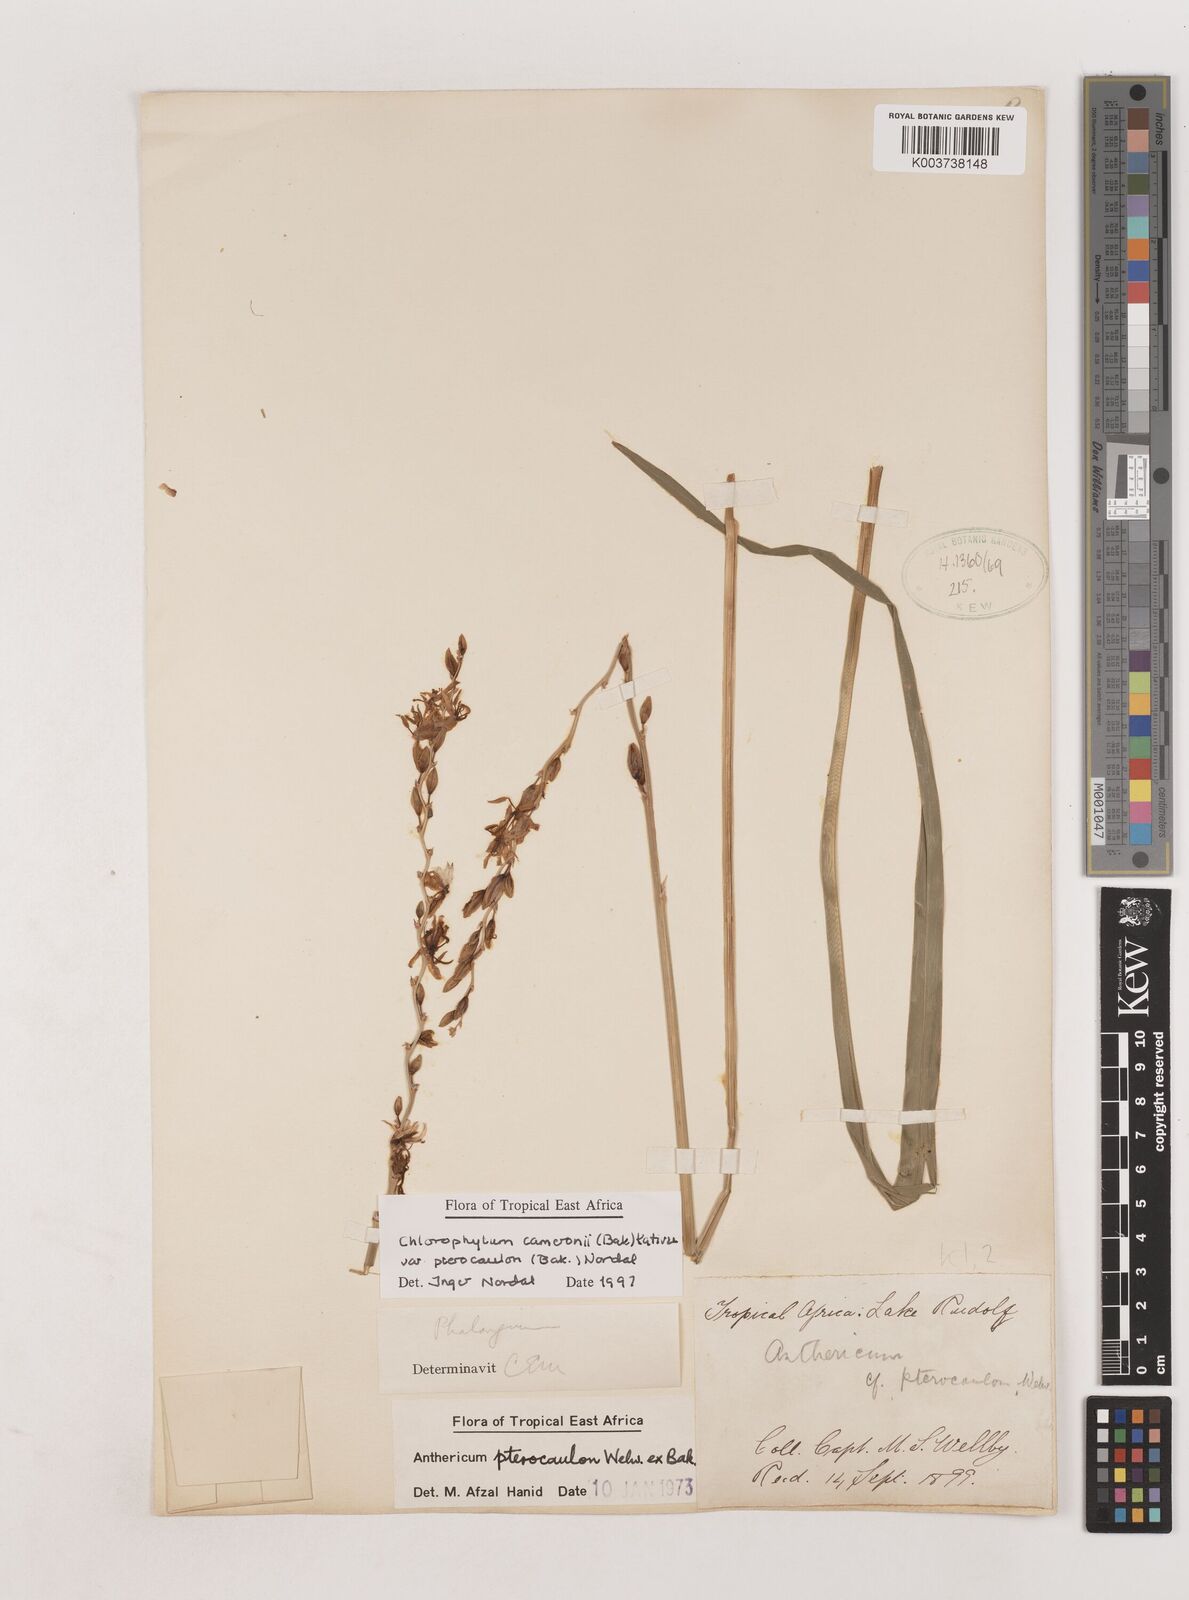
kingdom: Plantae
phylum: Tracheophyta
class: Liliopsida
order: Asparagales
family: Asparagaceae
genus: Chlorophytum
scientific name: Chlorophytum cameronii
